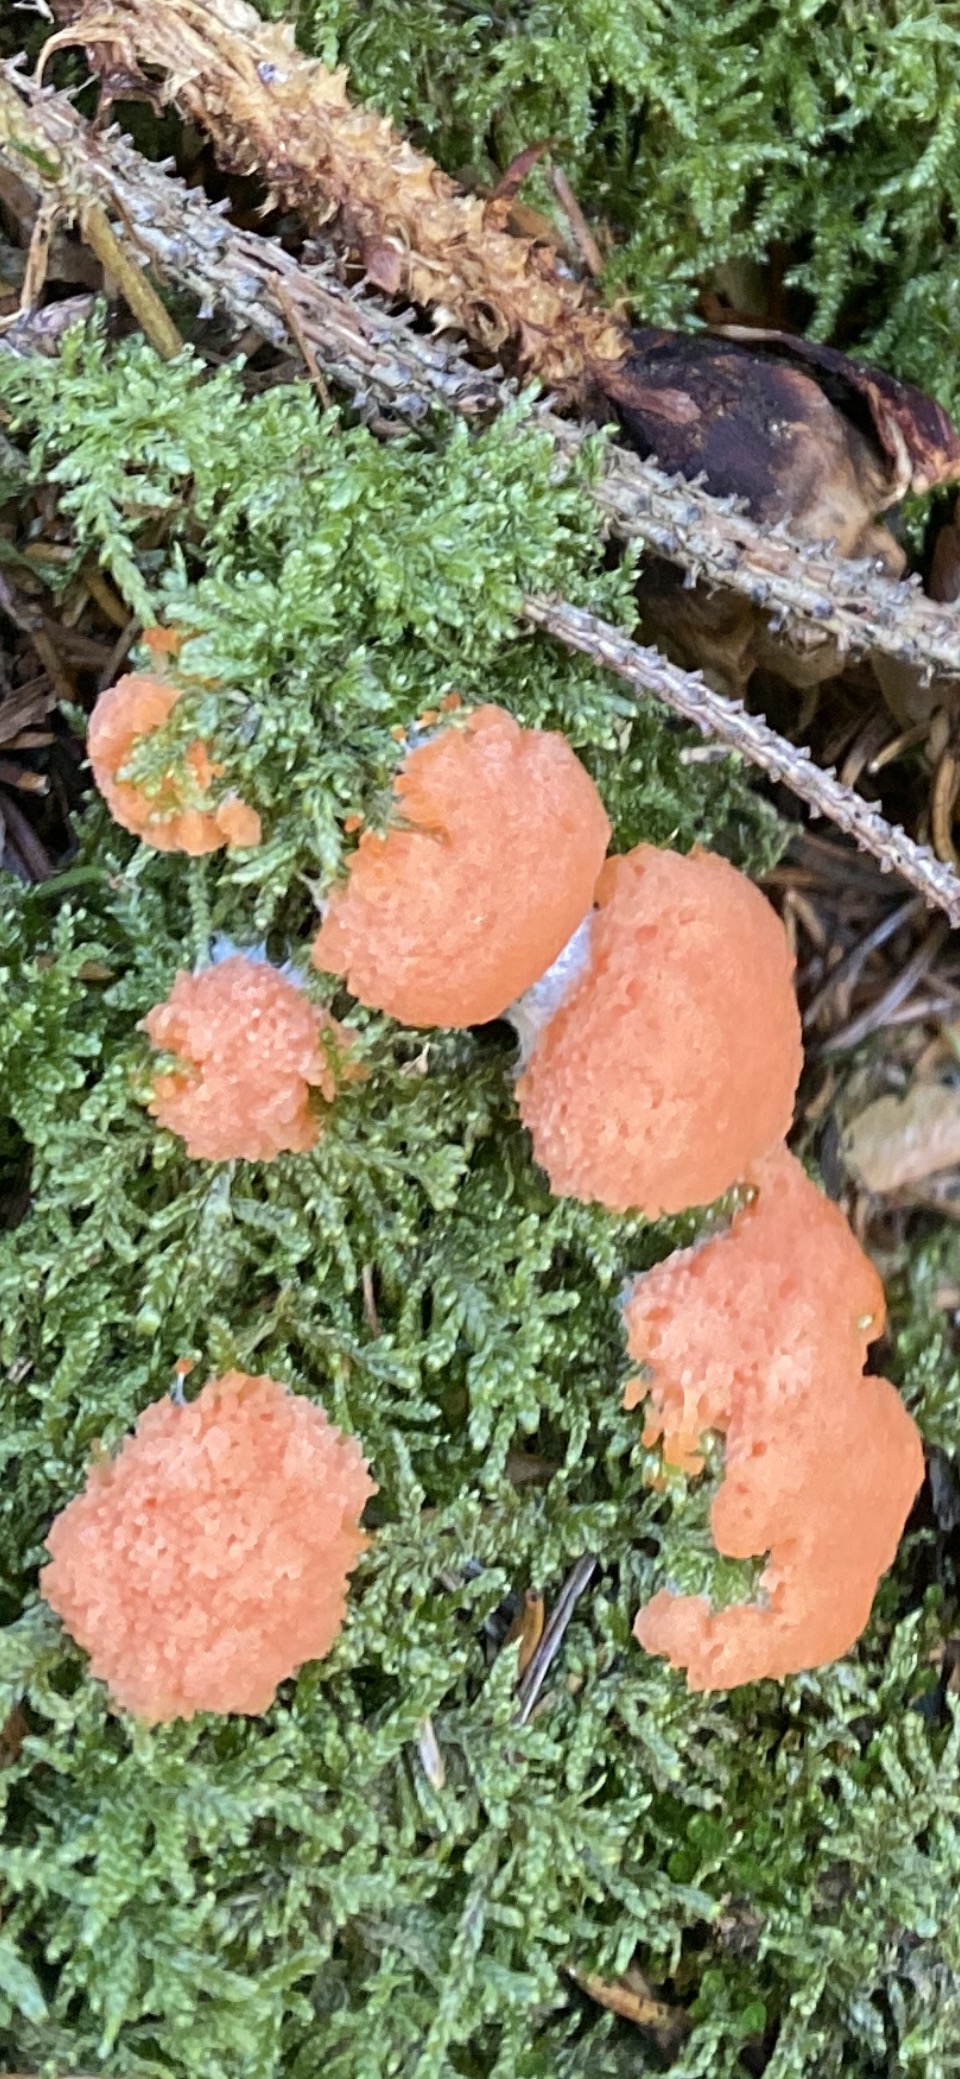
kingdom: Protozoa
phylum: Mycetozoa
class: Myxomycetes
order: Cribrariales
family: Tubiferaceae
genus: Tubifera
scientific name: Tubifera ferruginosa
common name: kanel-støvrør
